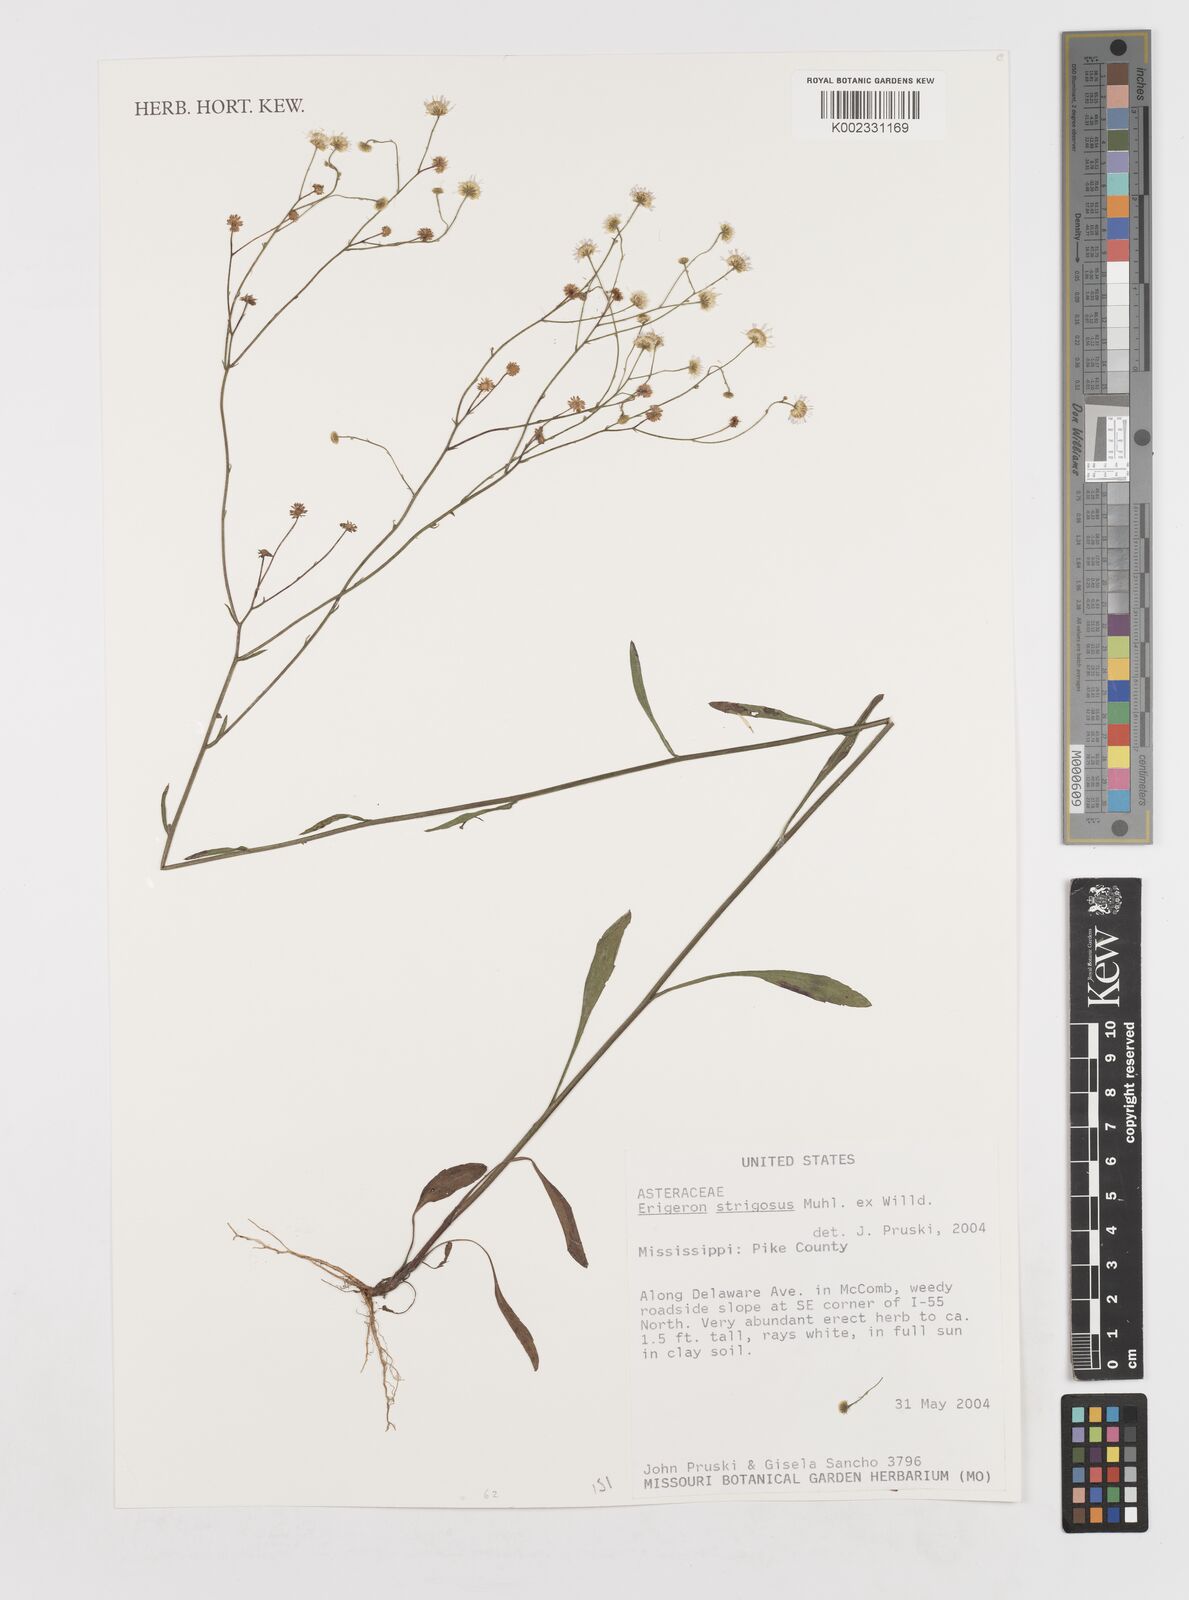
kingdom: Plantae
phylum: Tracheophyta
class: Magnoliopsida
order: Asterales
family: Asteraceae
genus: Erigeron
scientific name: Erigeron strigosus
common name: Common eastern fleabane
